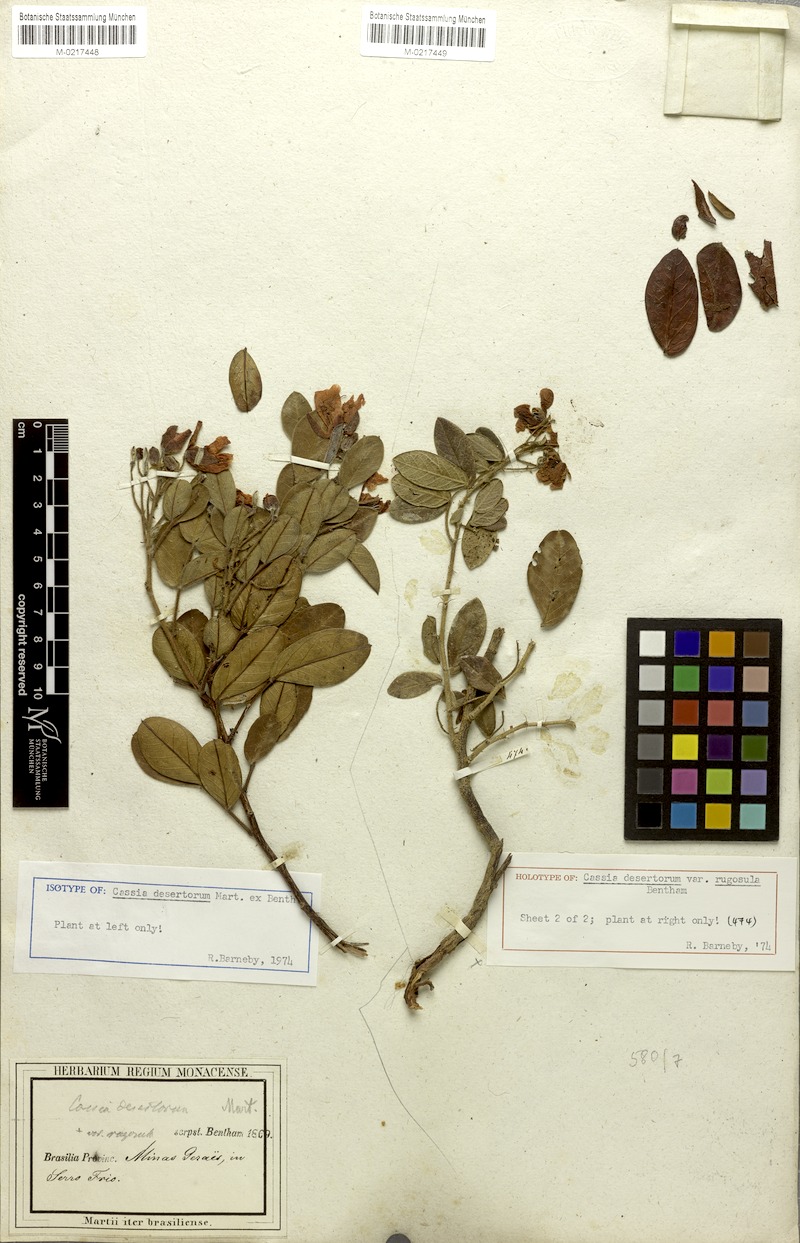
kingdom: Plantae
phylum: Tracheophyta
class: Magnoliopsida
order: Fabales
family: Fabaceae
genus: Chamaecrista
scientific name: Chamaecrista rugosula
